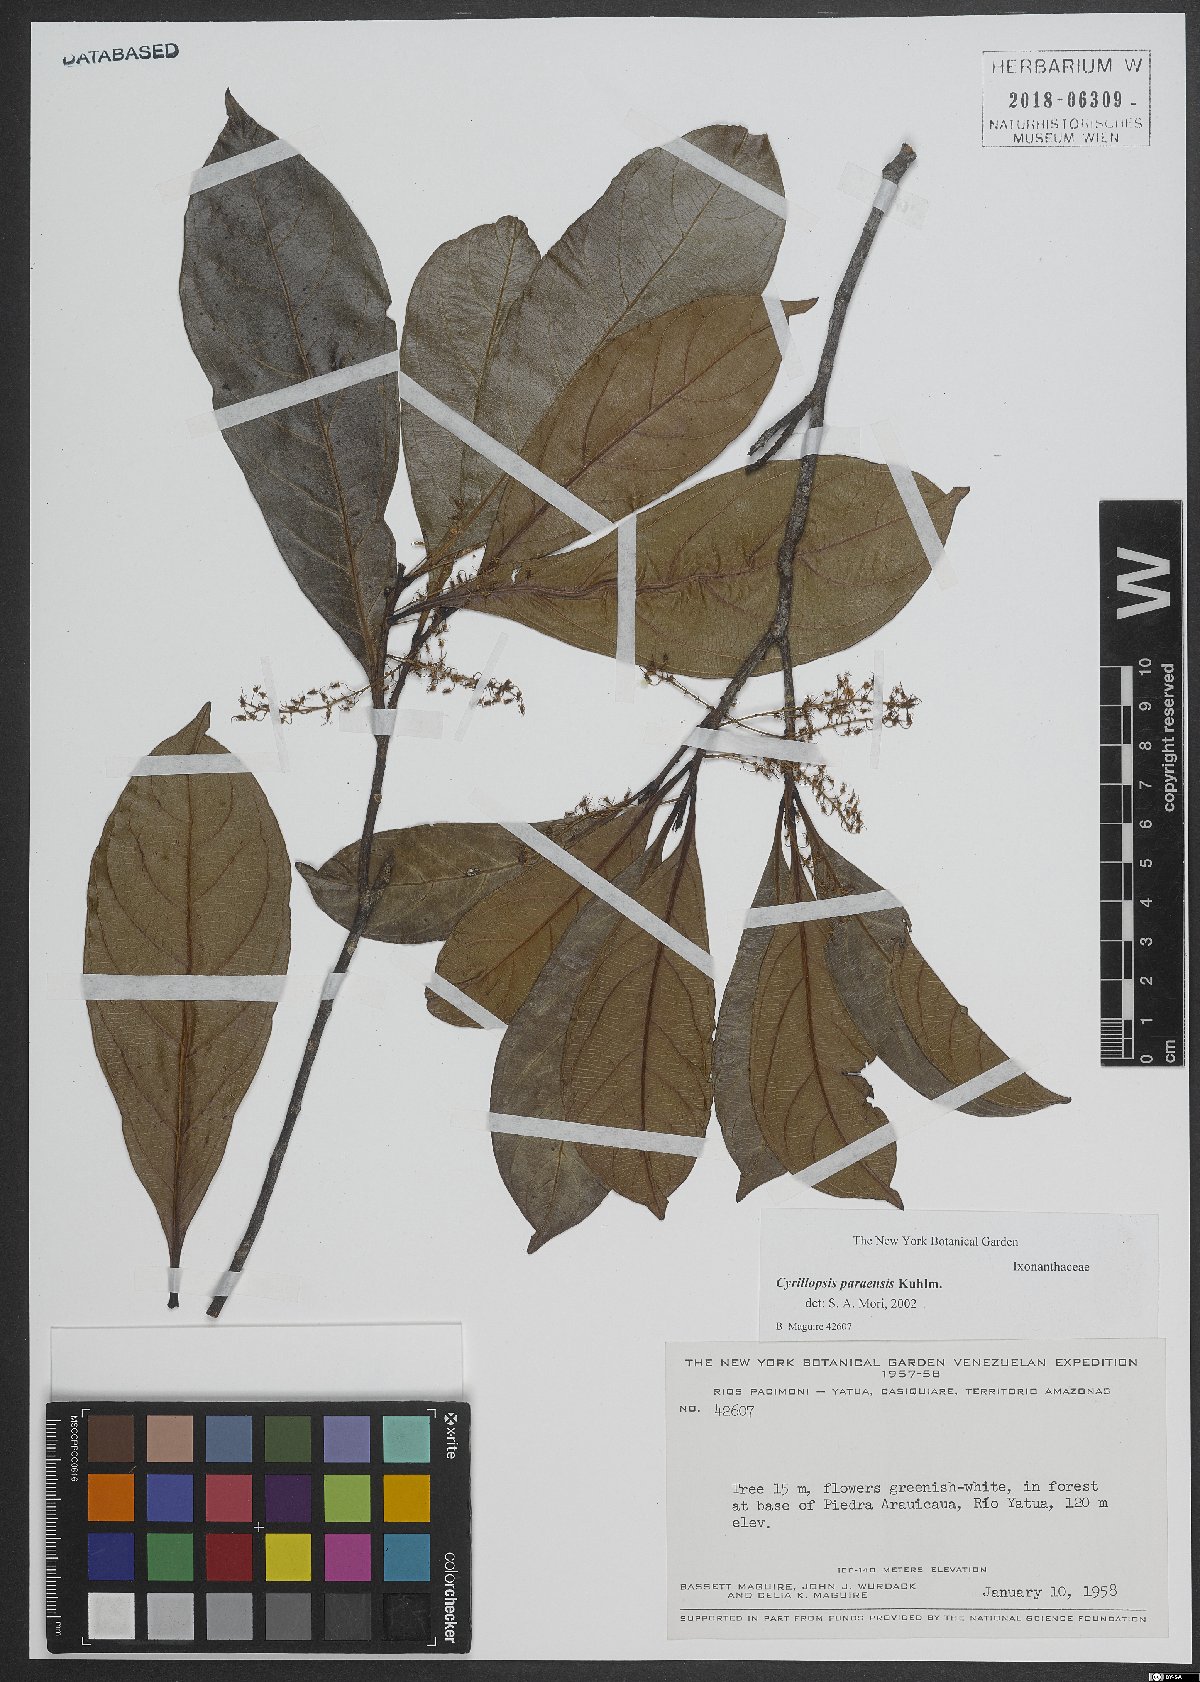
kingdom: Plantae
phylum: Tracheophyta
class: Magnoliopsida
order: Malpighiales
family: Ixonanthaceae
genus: Cyrillopsis
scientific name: Cyrillopsis paraensis
